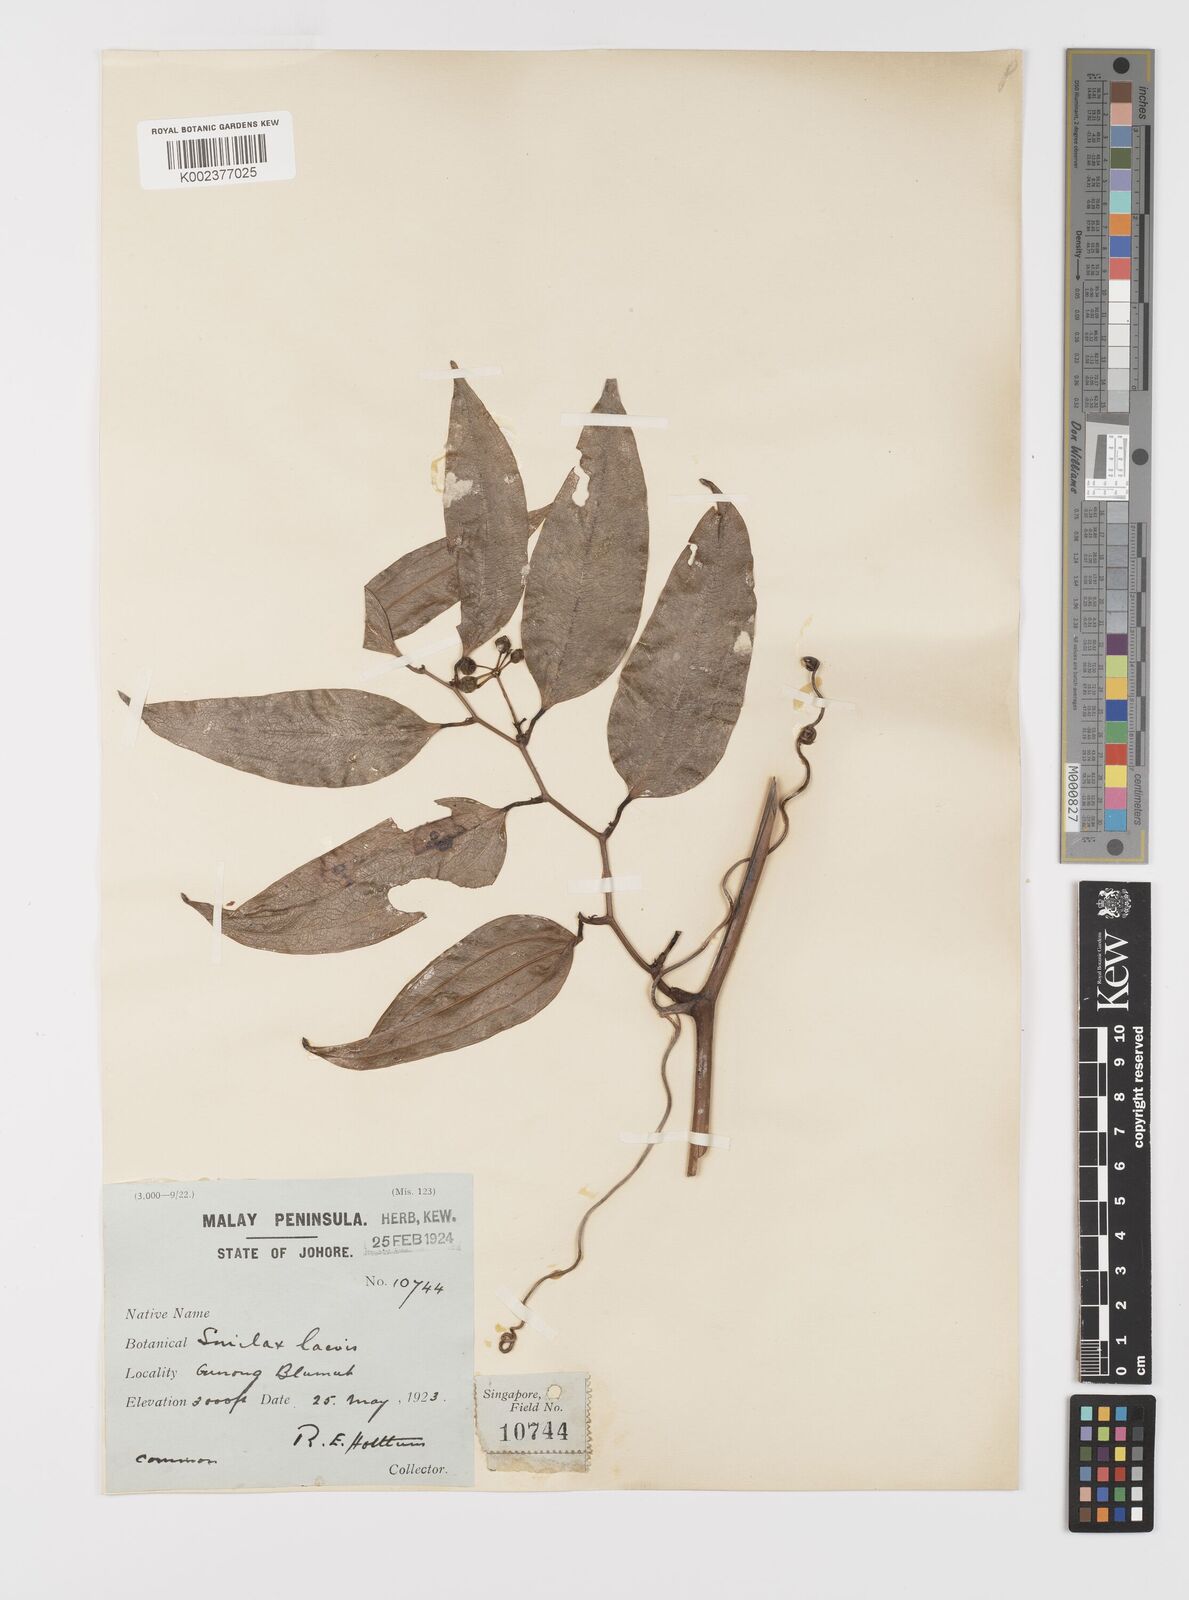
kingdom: Plantae
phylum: Tracheophyta
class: Liliopsida
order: Liliales
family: Smilacaceae
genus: Smilax
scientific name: Smilax laevis
